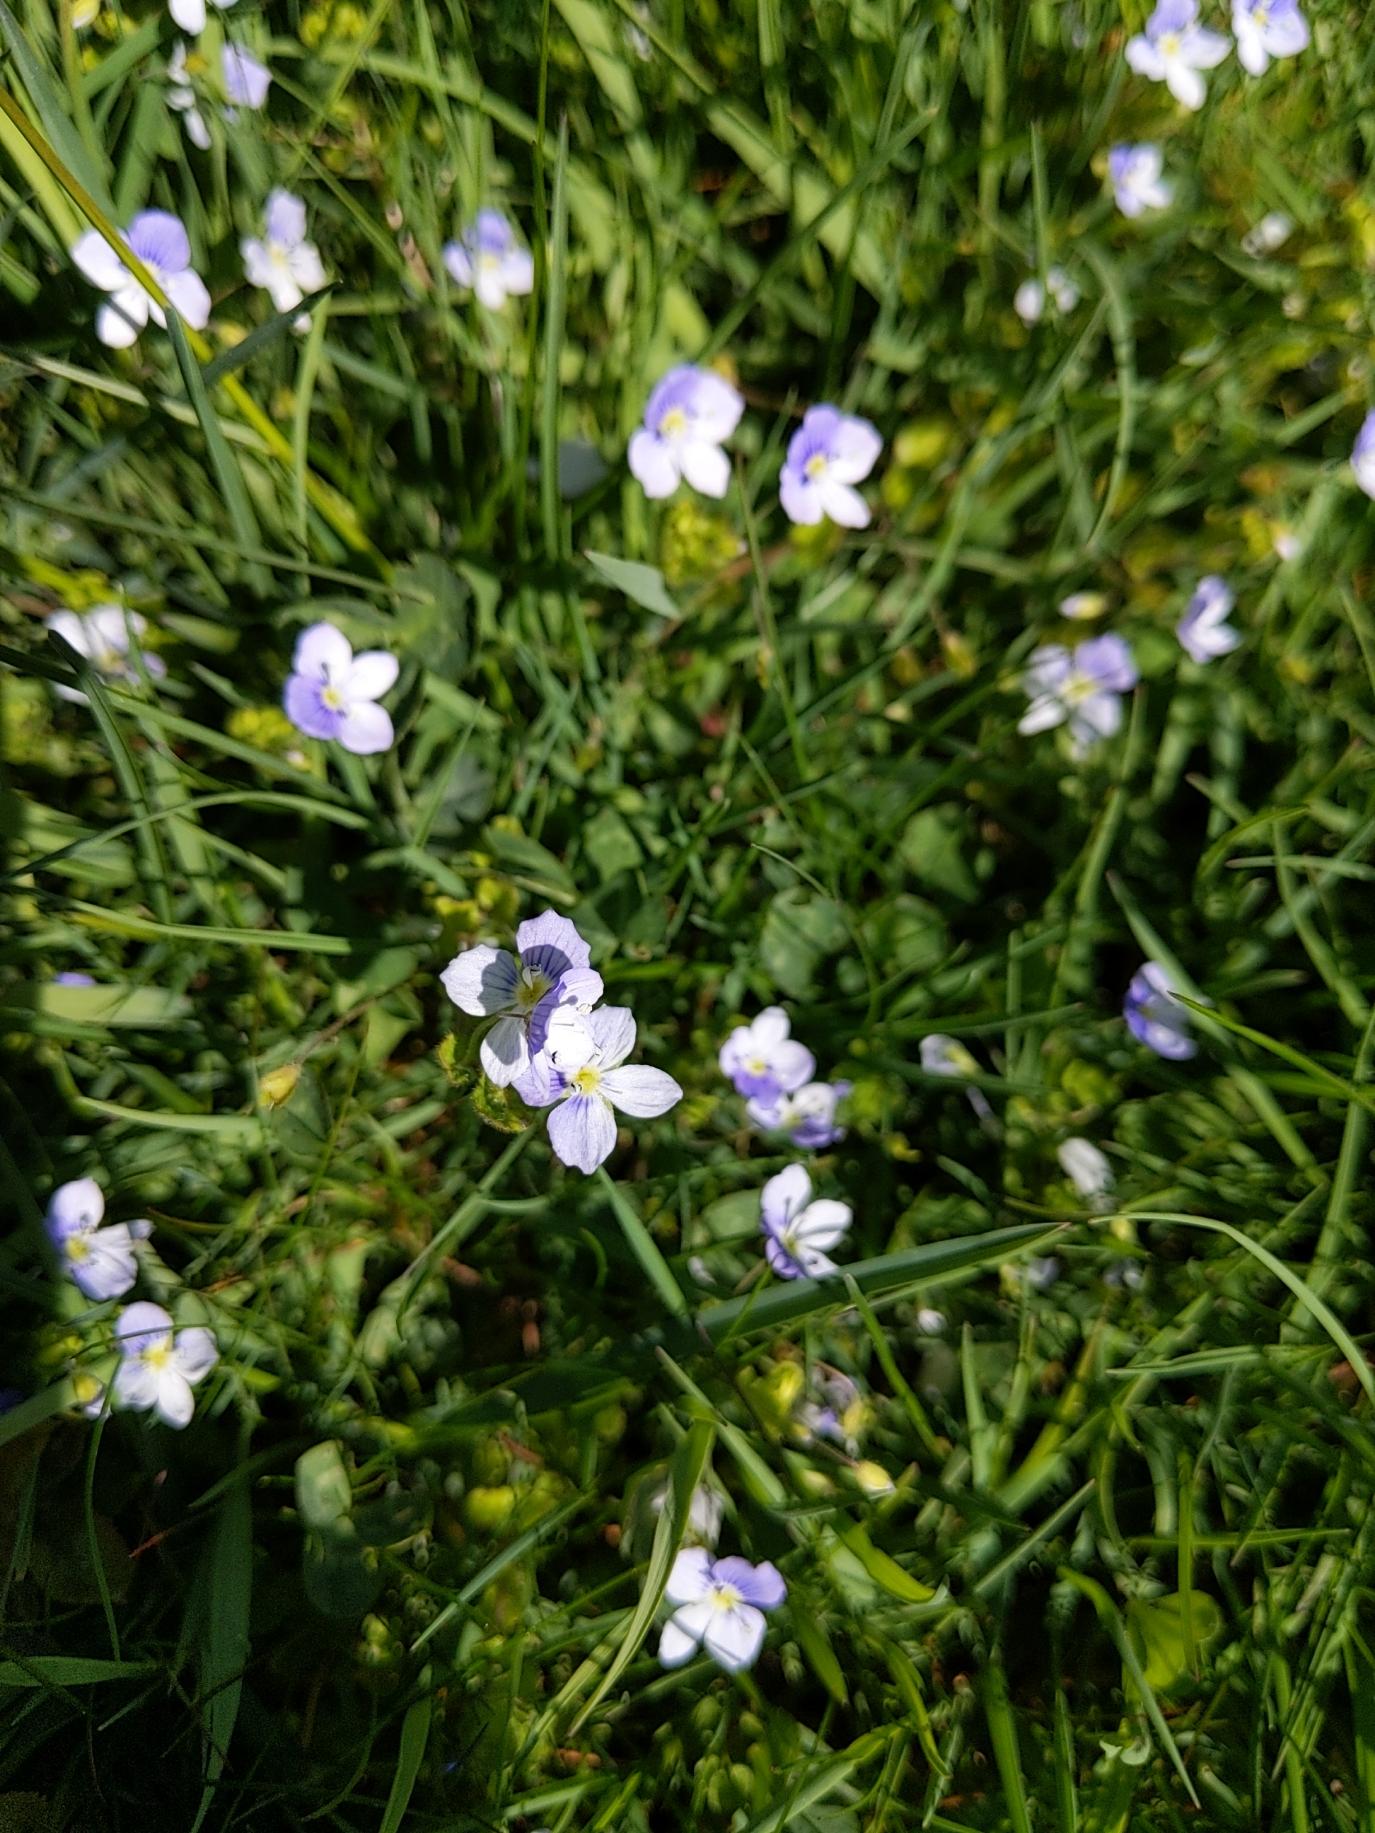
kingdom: Plantae
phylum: Tracheophyta
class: Magnoliopsida
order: Lamiales
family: Plantaginaceae
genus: Veronica
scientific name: Veronica filiformis
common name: Tråd-ærenpris
